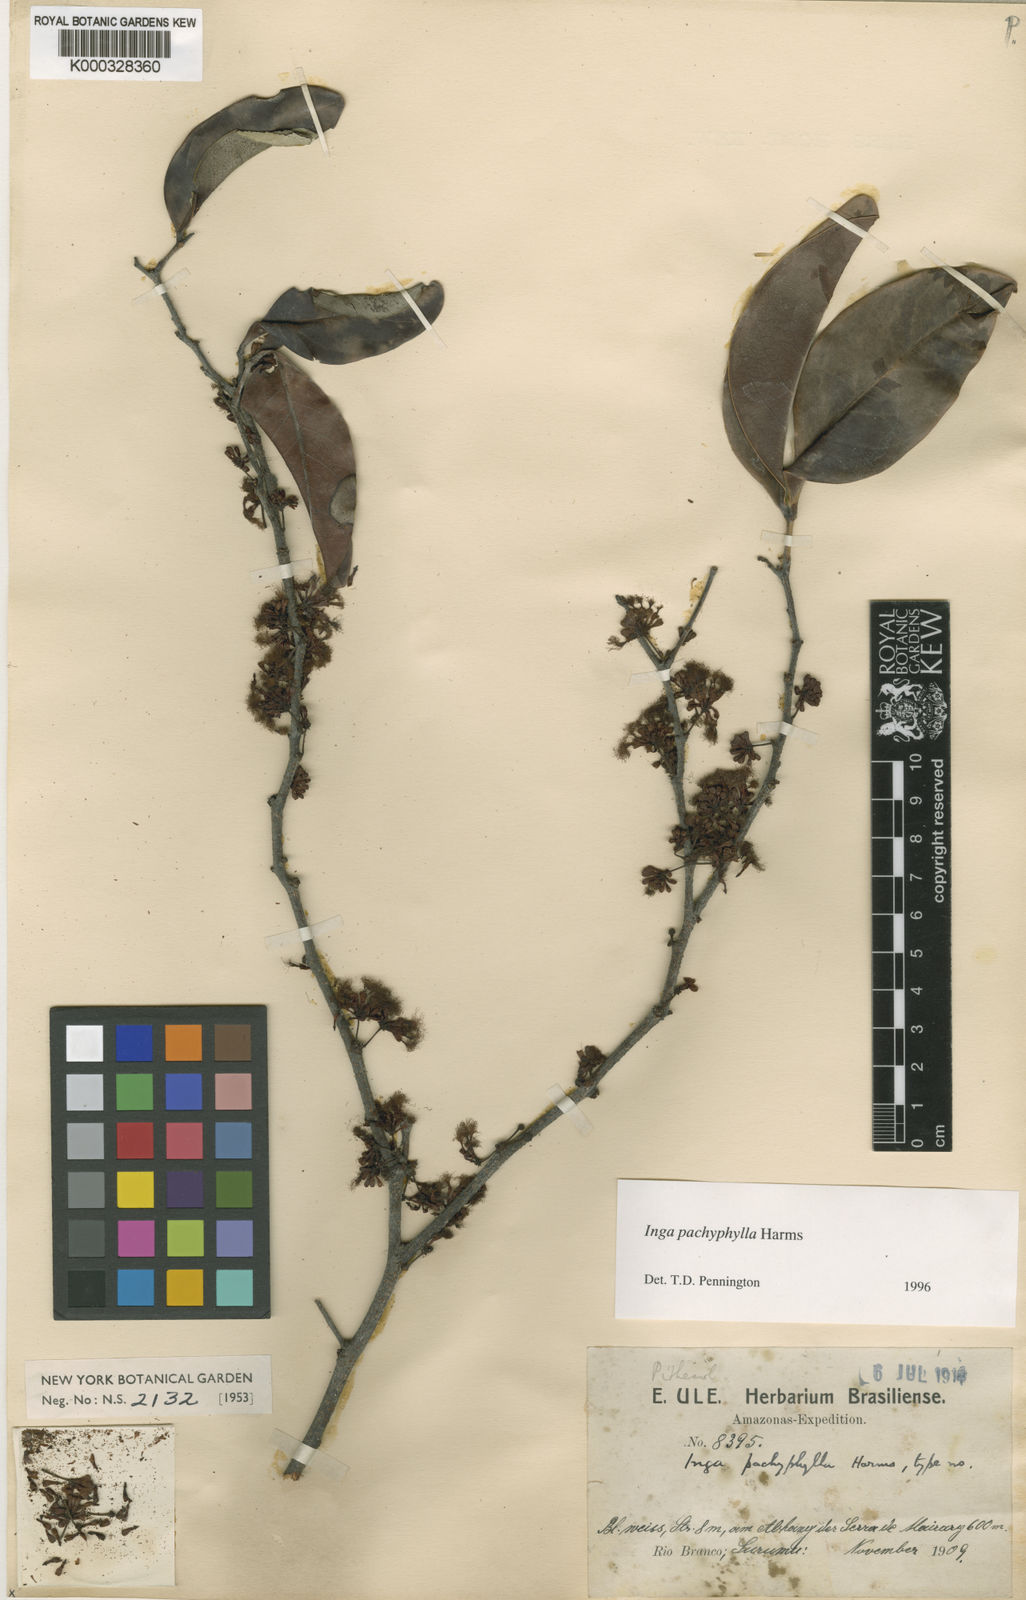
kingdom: Plantae
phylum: Tracheophyta
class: Magnoliopsida
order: Fabales
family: Fabaceae
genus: Inga
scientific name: Inga pachyphylla
